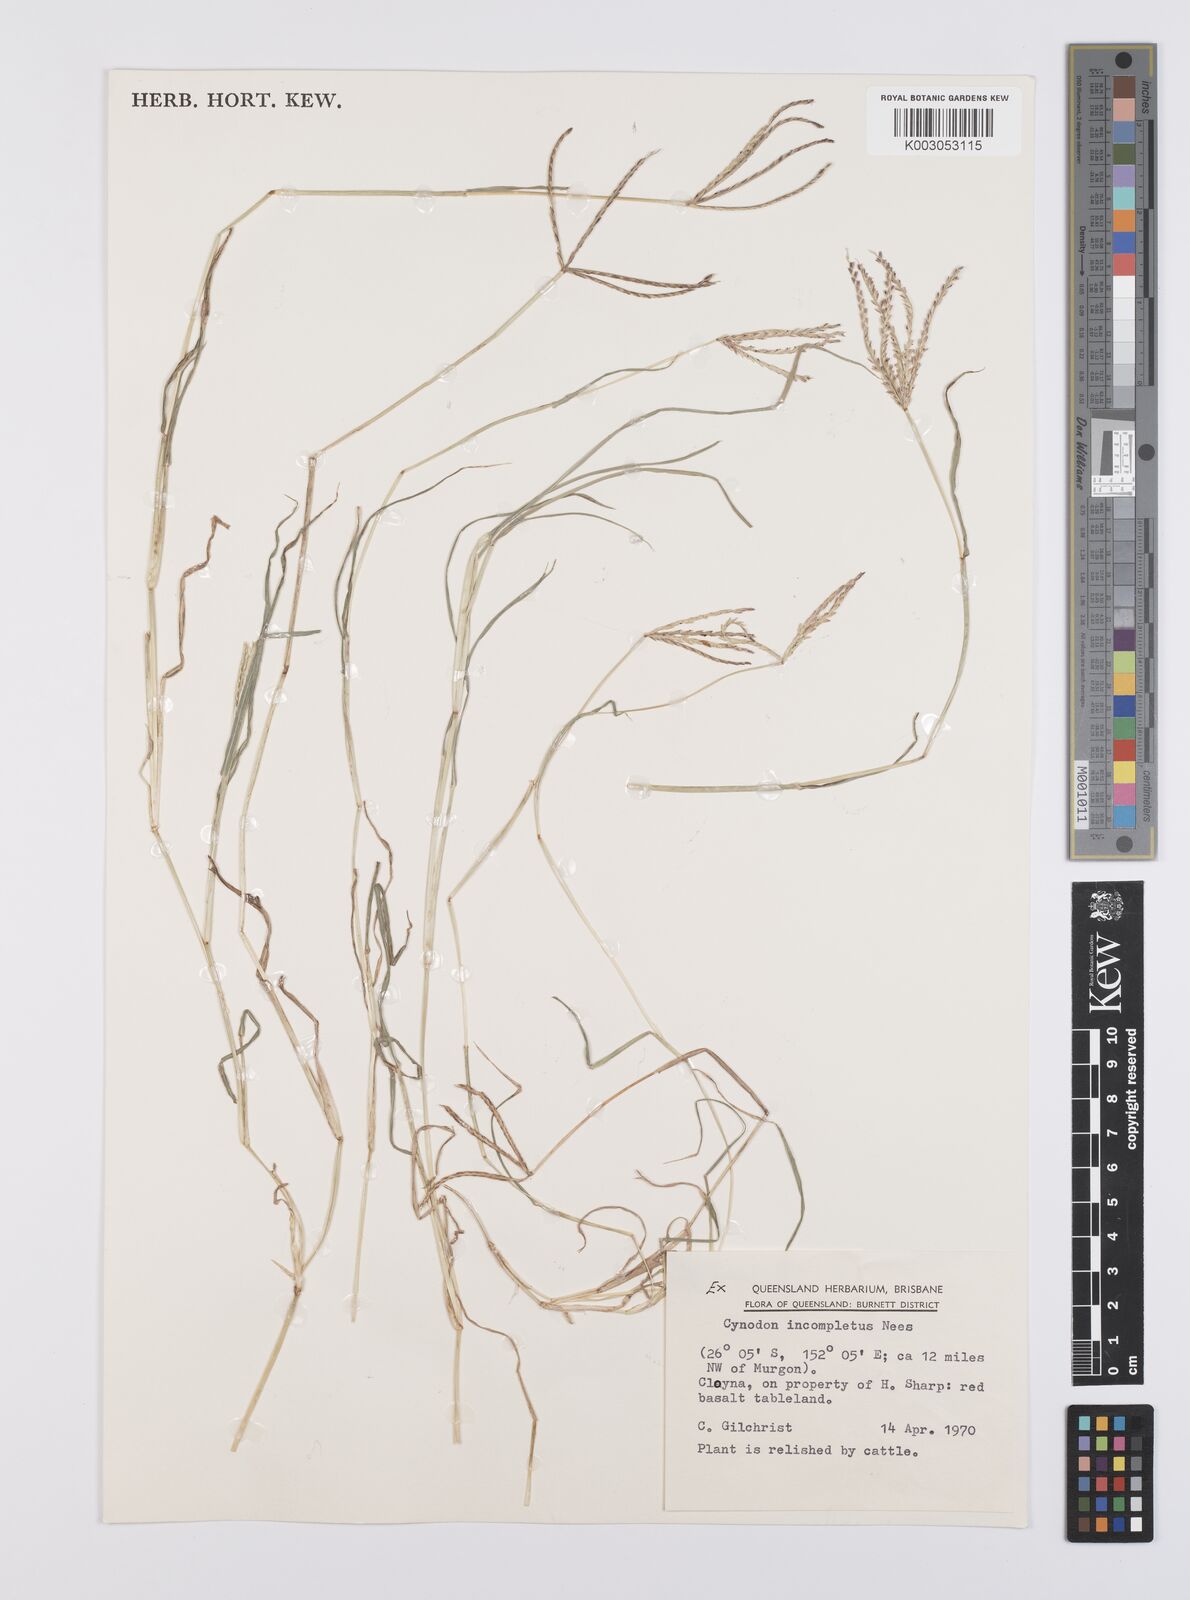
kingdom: Plantae
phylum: Tracheophyta
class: Liliopsida
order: Poales
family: Poaceae
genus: Cynodon
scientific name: Cynodon incompletus
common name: African bermuda-grass
